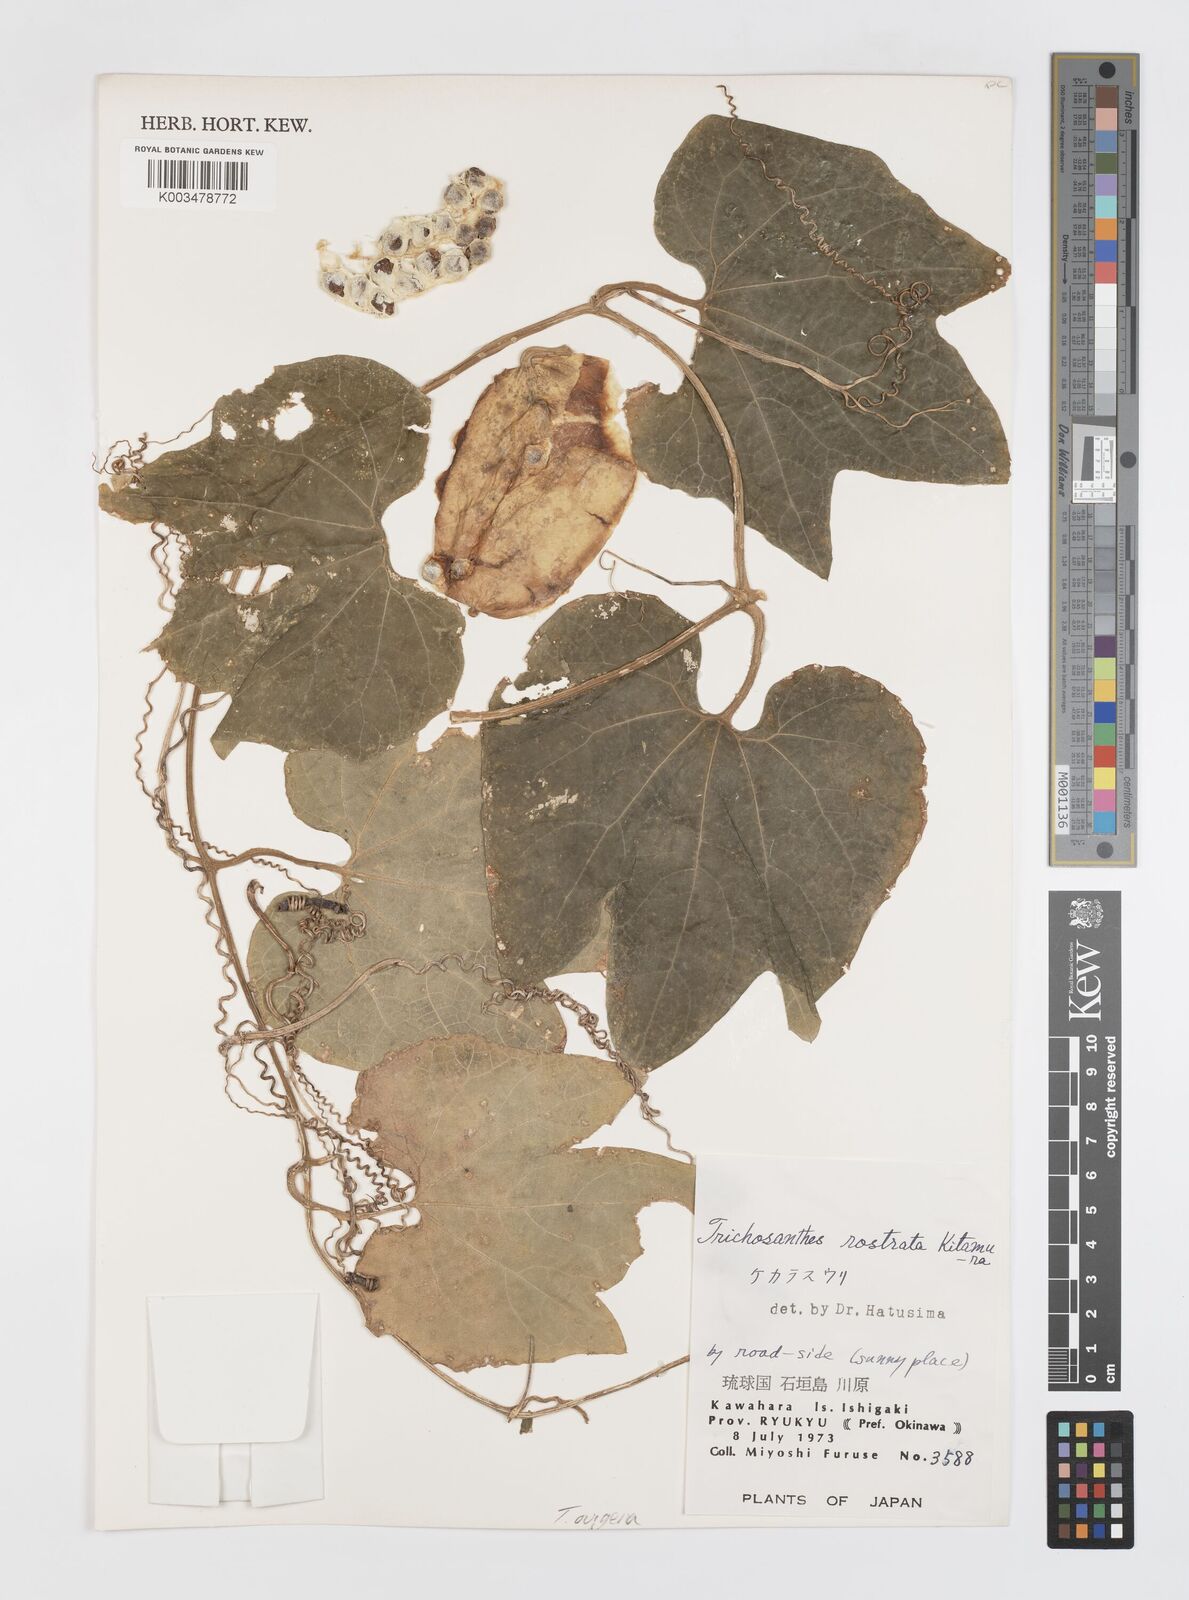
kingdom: Plantae
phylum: Tracheophyta
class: Magnoliopsida
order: Cucurbitales
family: Cucurbitaceae
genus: Trichosanthes
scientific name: Trichosanthes ovigera
